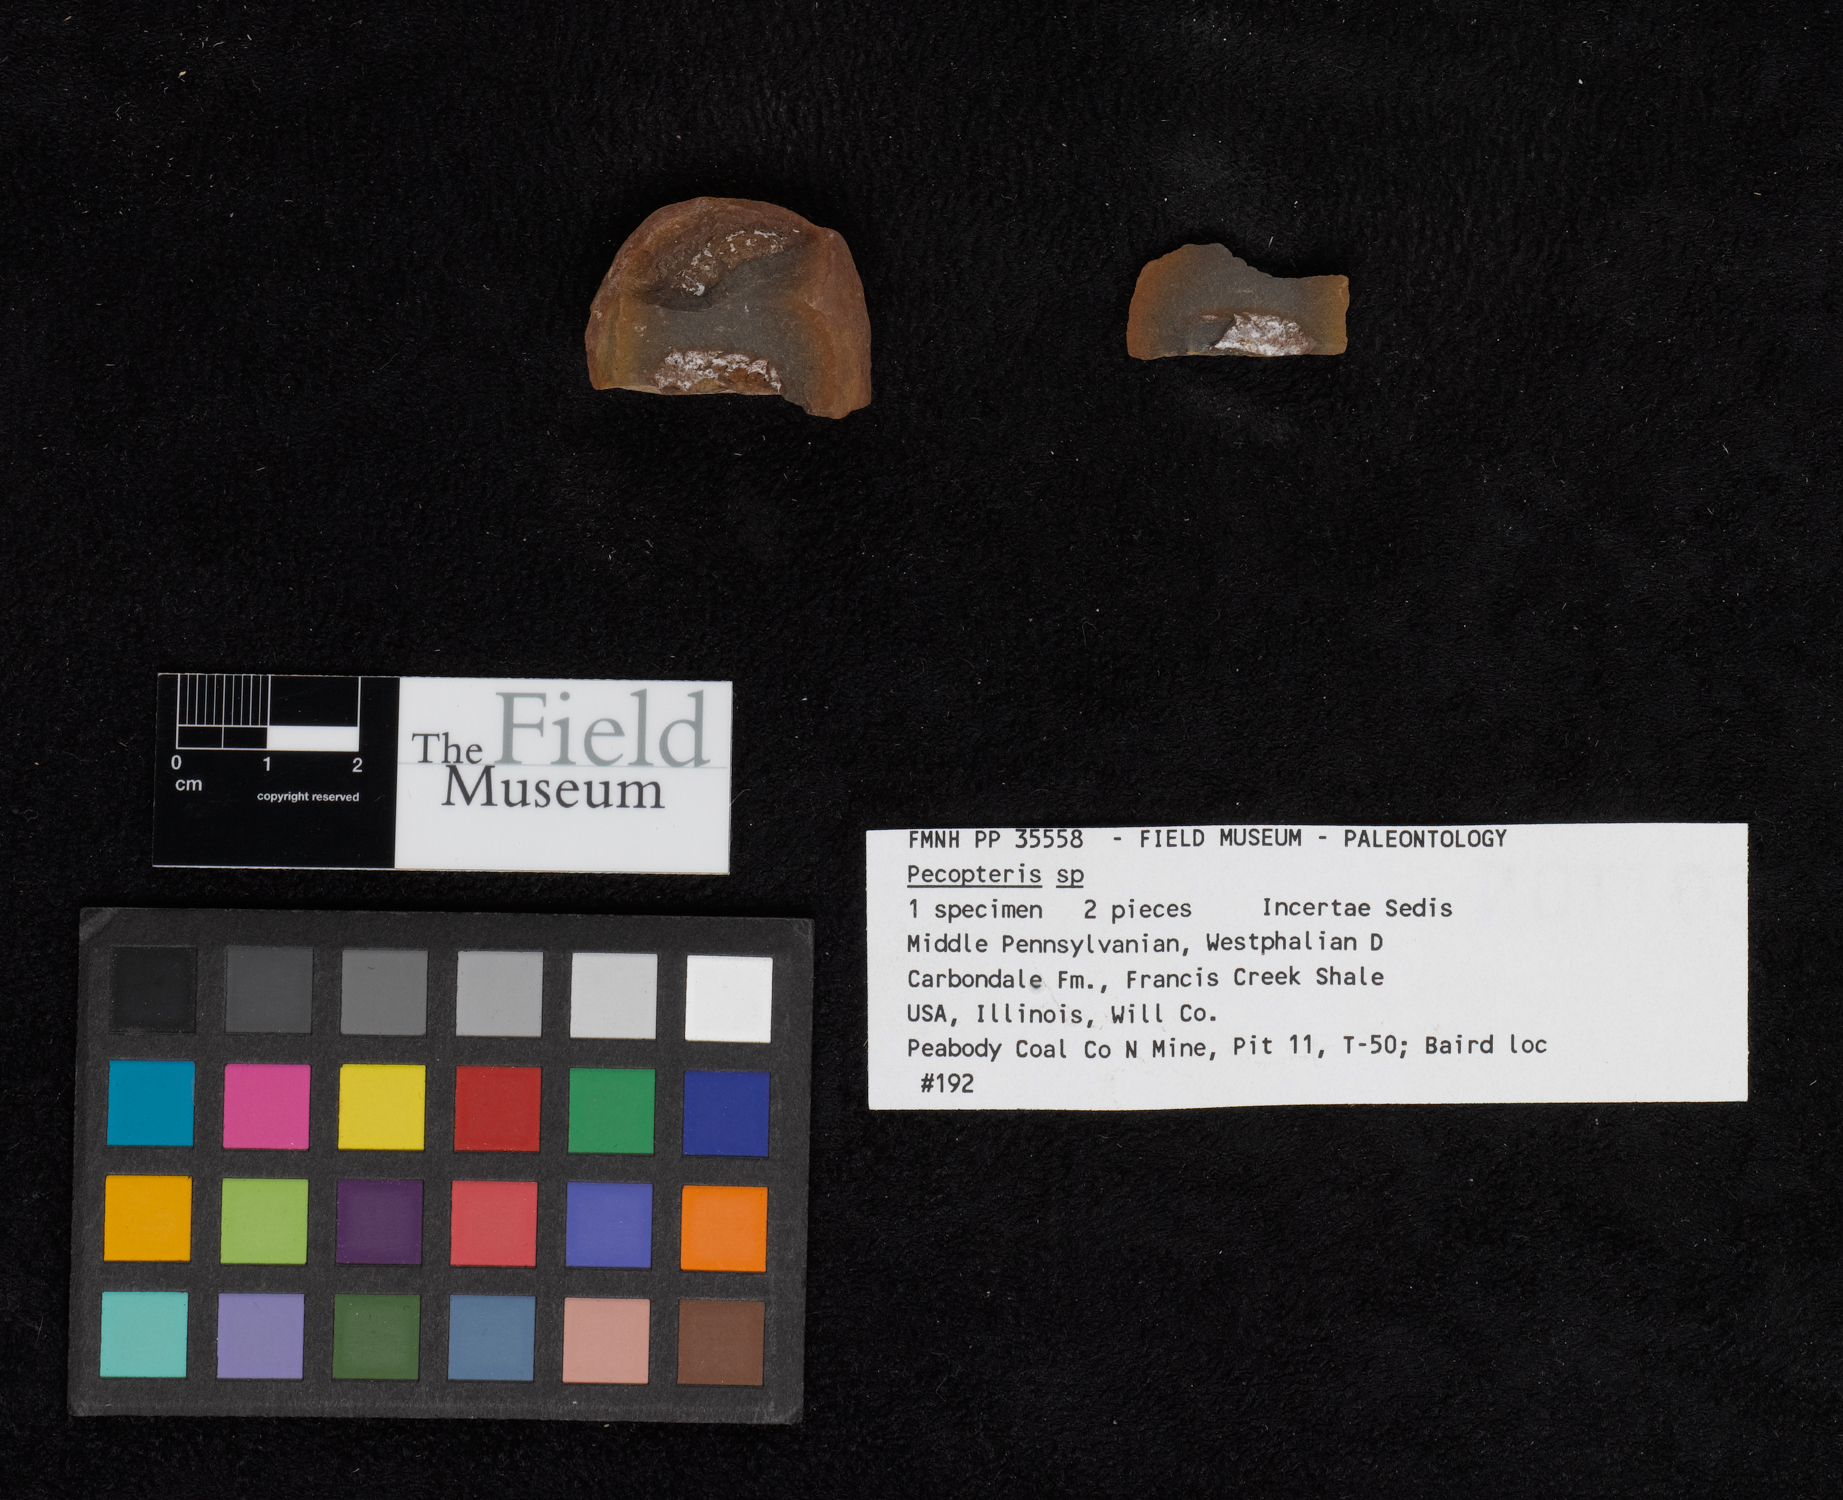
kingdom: Plantae
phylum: Tracheophyta
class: Polypodiopsida
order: Marattiales
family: Asterothecaceae
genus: Pecopteris
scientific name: Pecopteris
